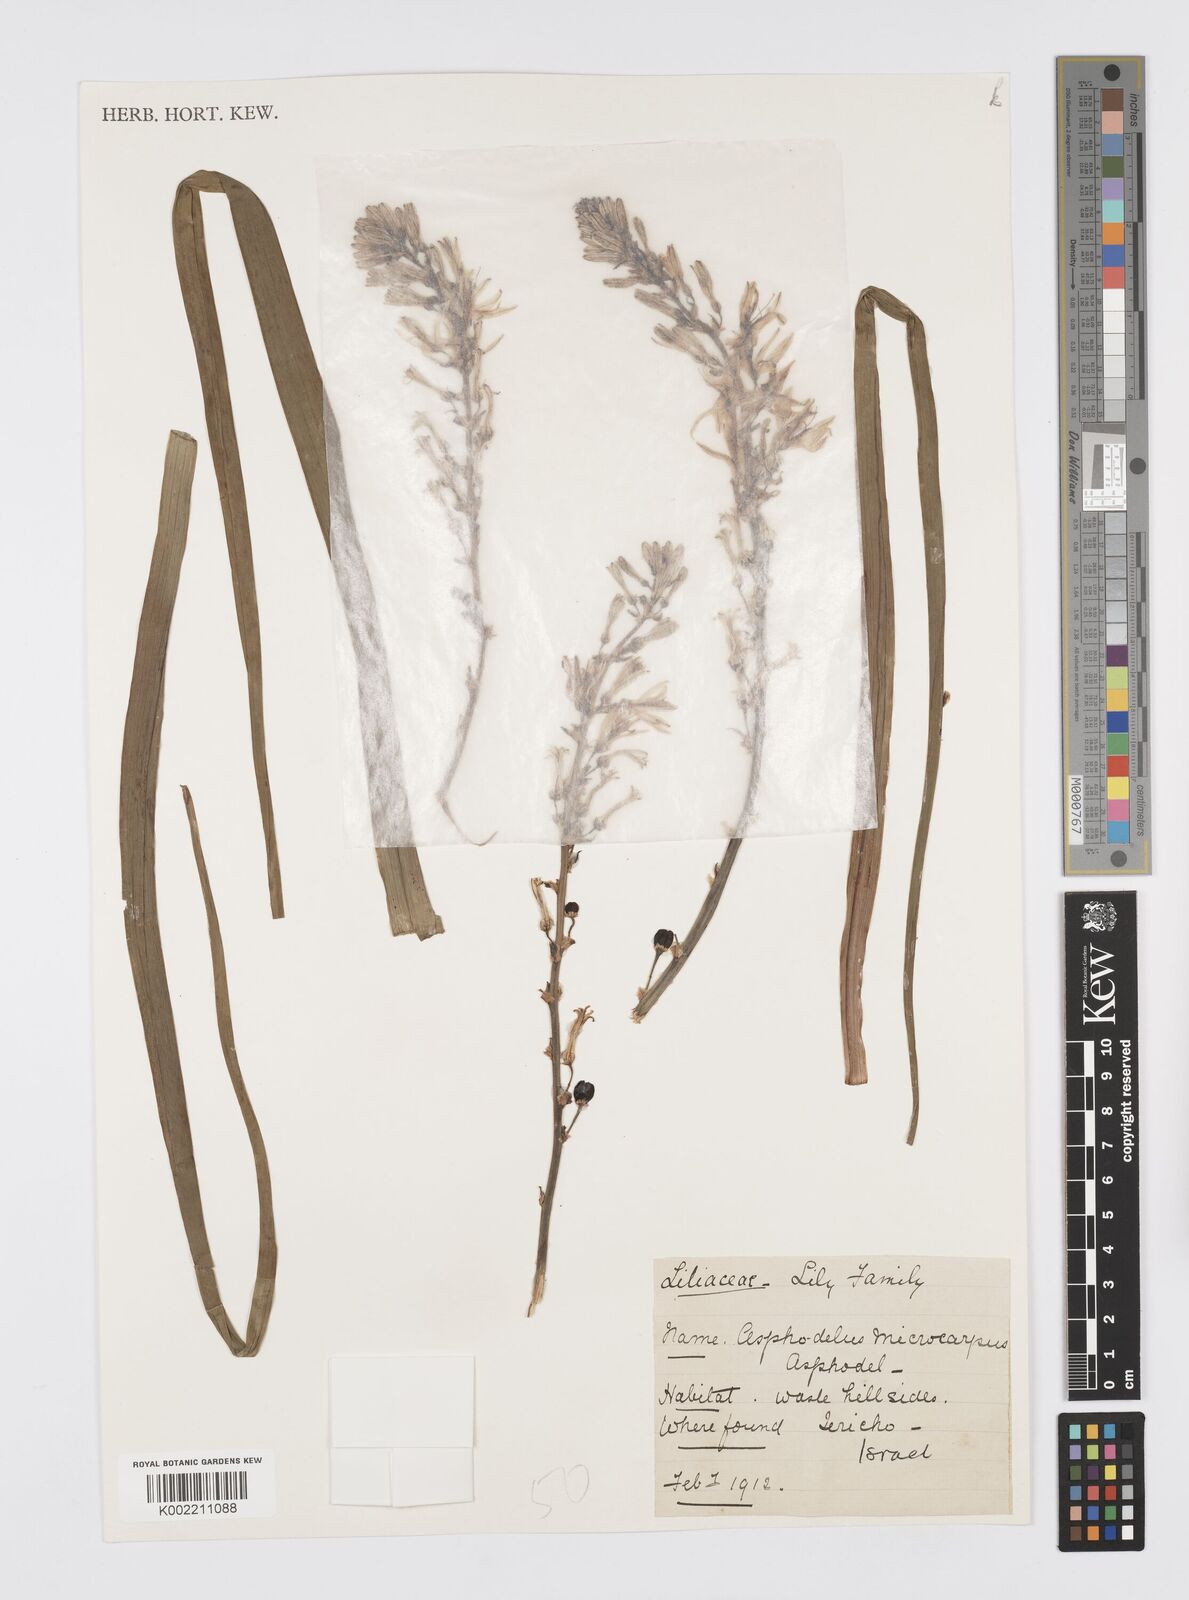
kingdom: Plantae
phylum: Tracheophyta
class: Liliopsida
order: Asparagales
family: Asphodelaceae
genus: Asphodelus
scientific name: Asphodelus ramosus
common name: Silverrod
